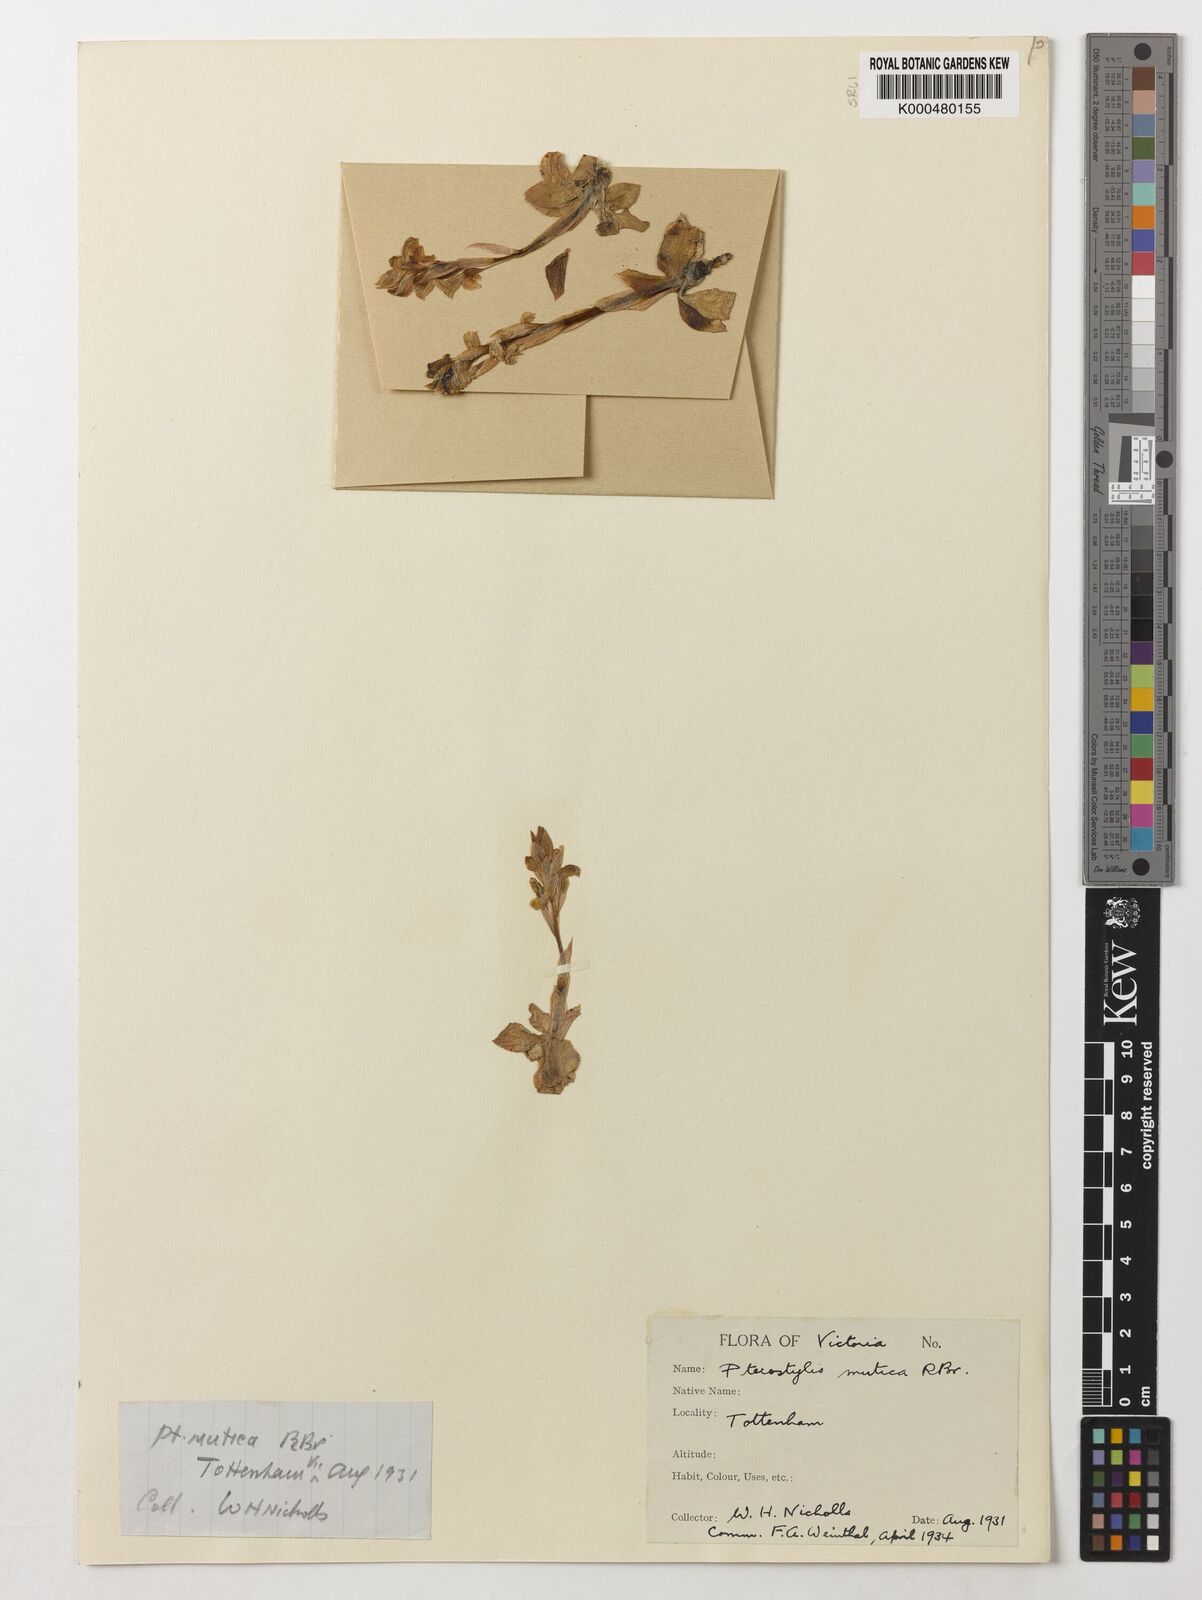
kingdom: Plantae
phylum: Tracheophyta
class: Liliopsida
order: Asparagales
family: Orchidaceae
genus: Pterostylis
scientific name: Pterostylis mutica
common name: Midget greenhood
